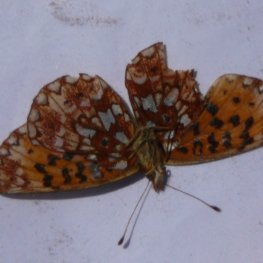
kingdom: Animalia
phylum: Arthropoda
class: Insecta
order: Lepidoptera
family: Nymphalidae
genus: Boloria
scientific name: Boloria selene
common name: Silver-bordered Fritillary
